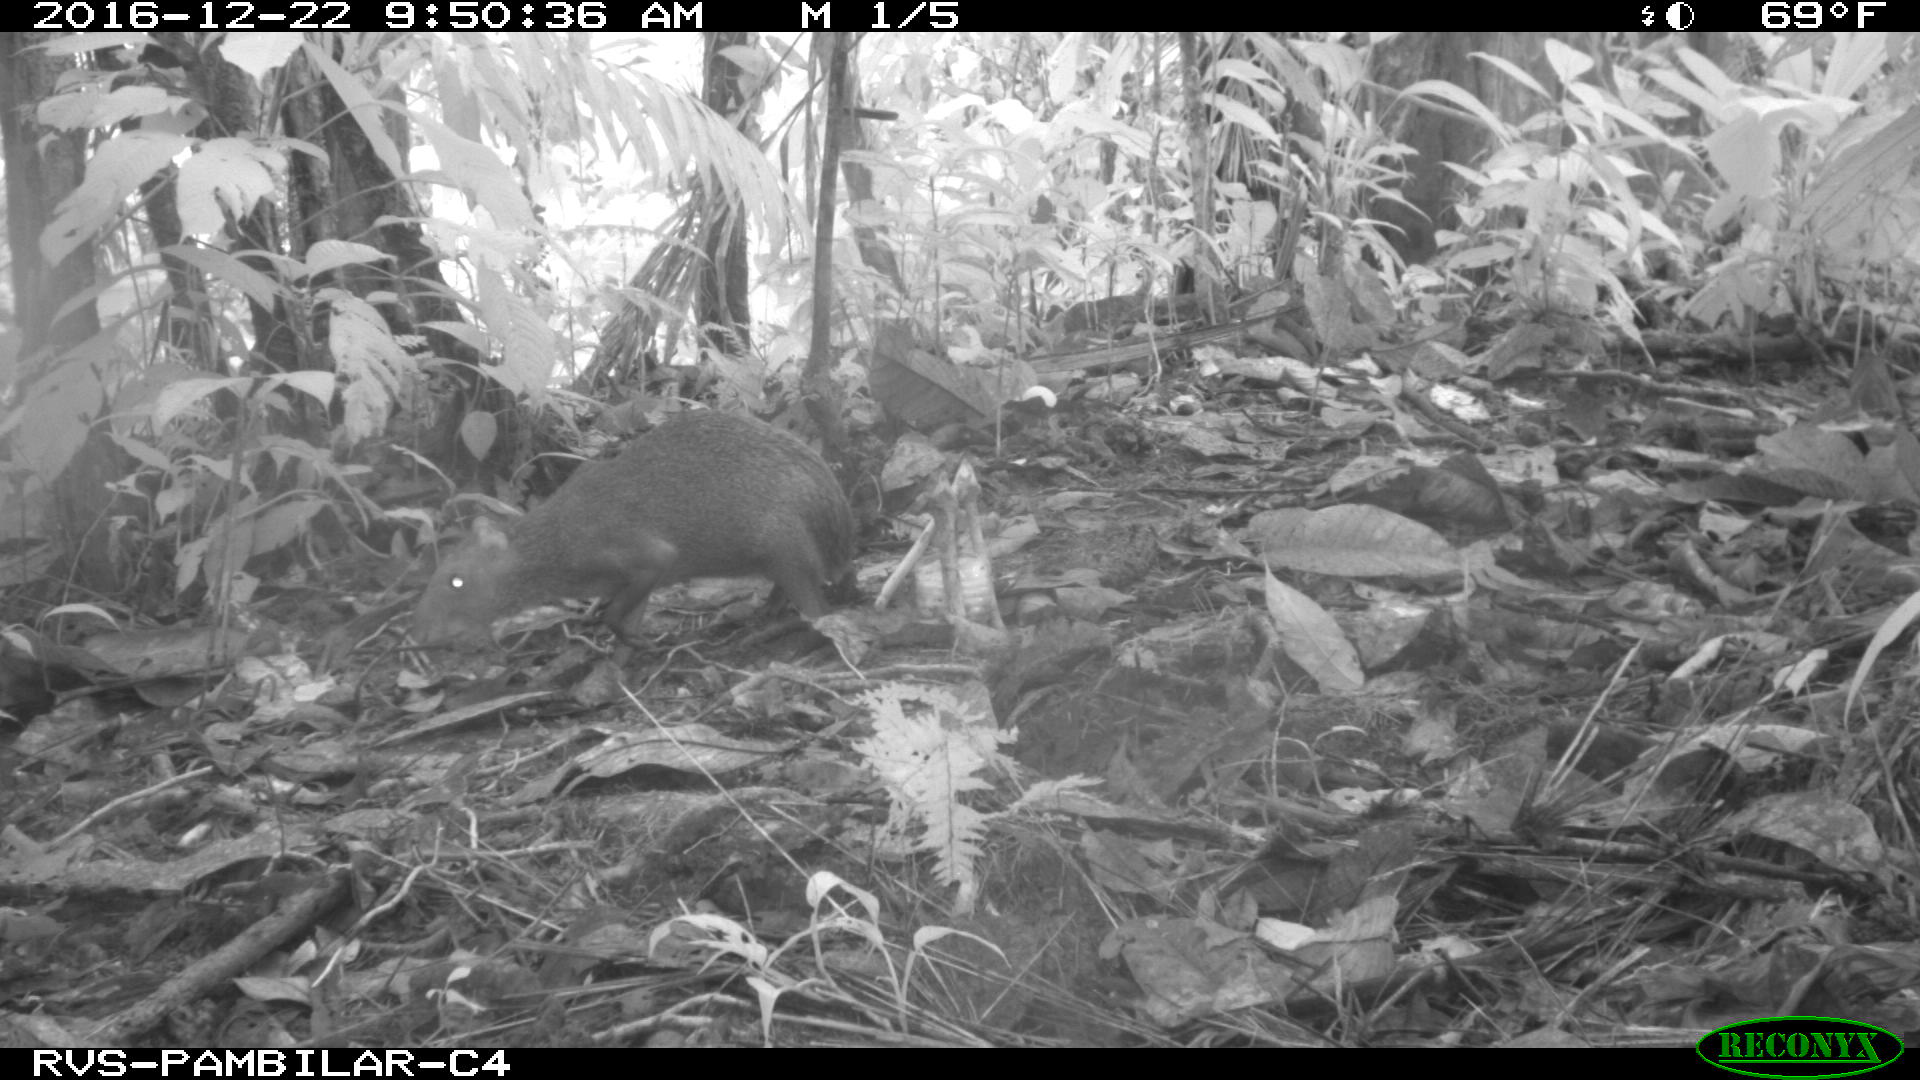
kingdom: Animalia
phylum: Chordata
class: Mammalia
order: Rodentia
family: Dasyproctidae
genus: Dasyprocta
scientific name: Dasyprocta punctata
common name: Central american agouti
